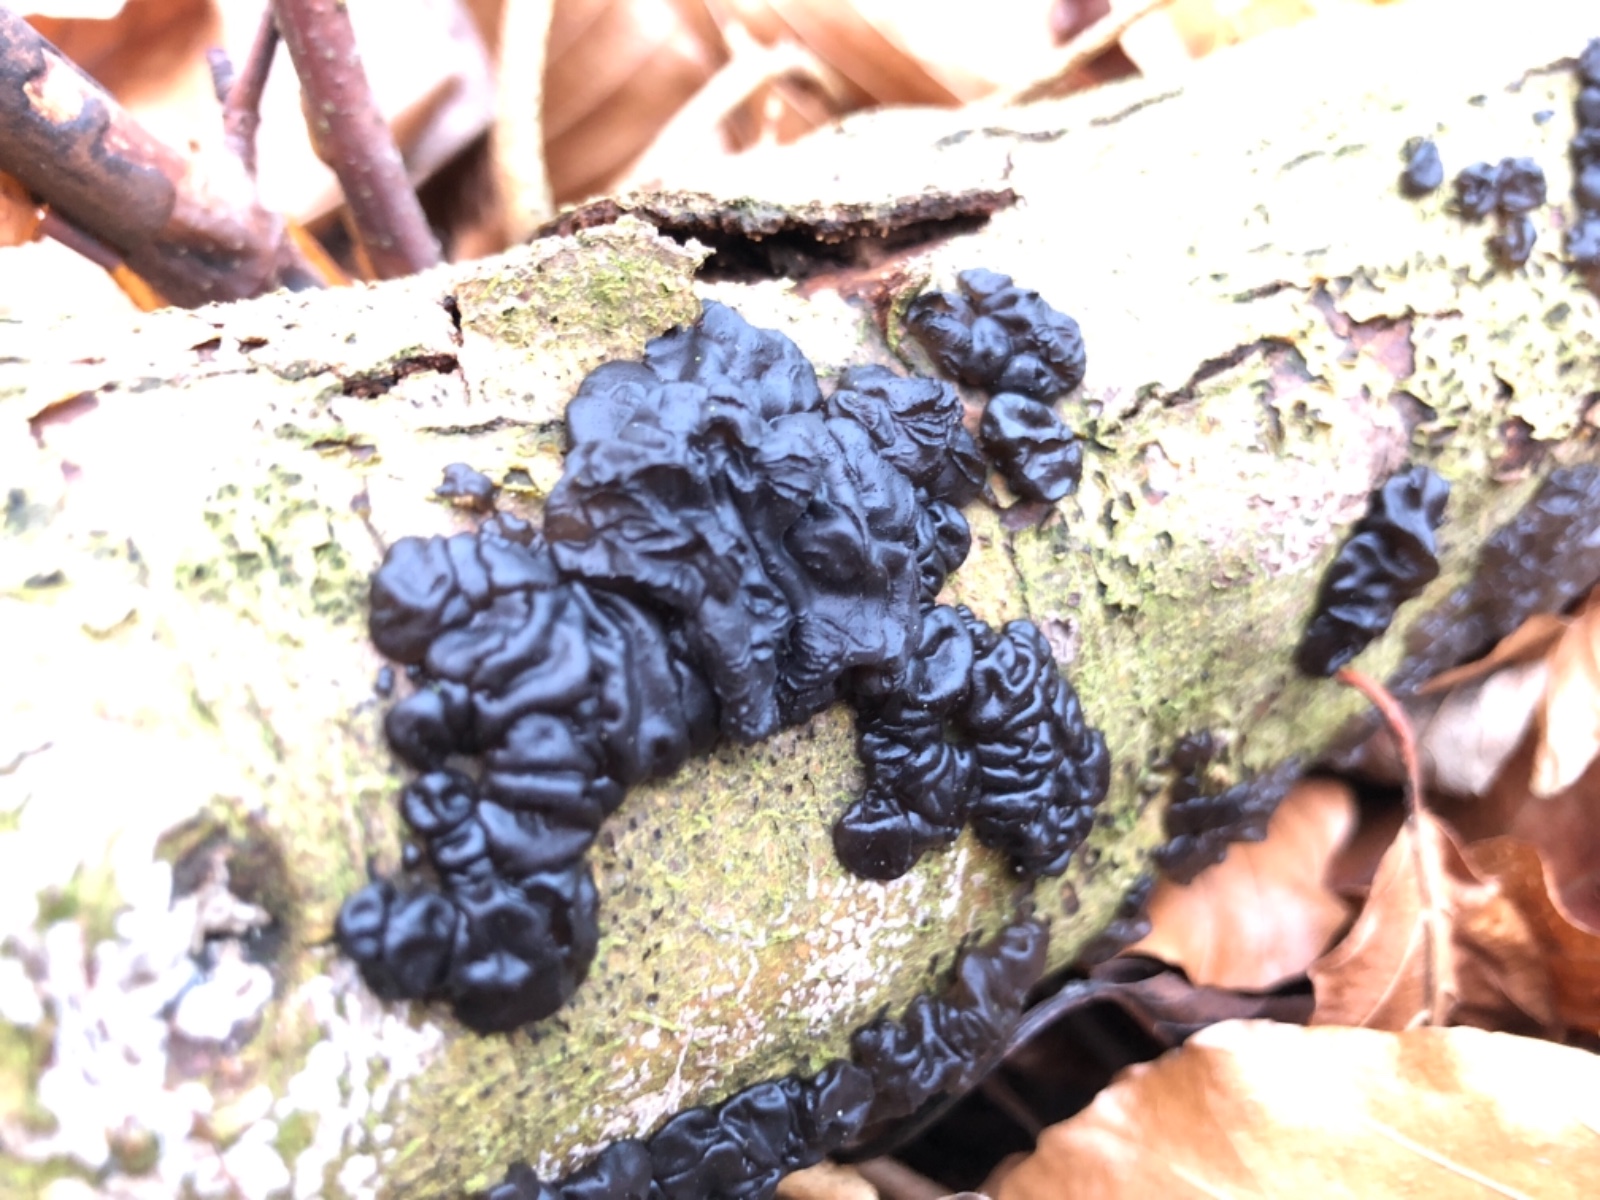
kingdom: Fungi
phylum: Basidiomycota
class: Agaricomycetes
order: Auriculariales
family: Auriculariaceae
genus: Exidia
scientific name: Exidia nigricans
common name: almindelig bævretop
